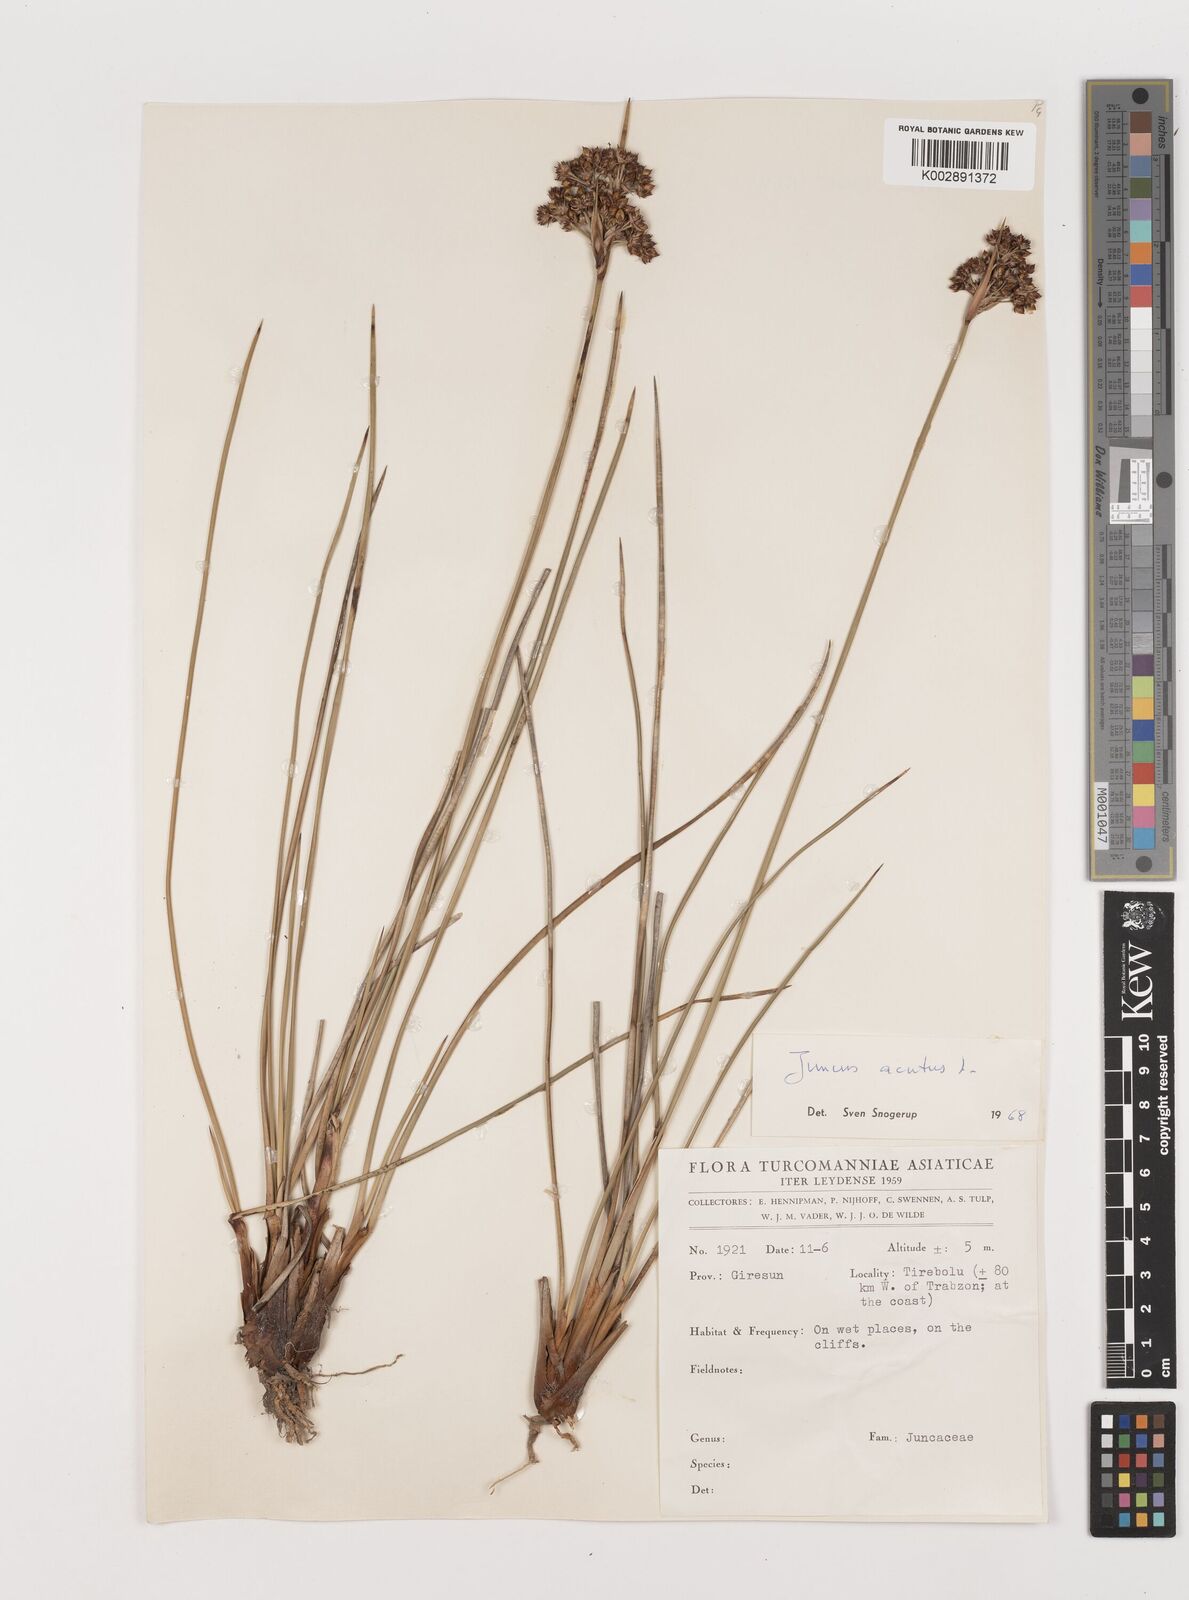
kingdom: Plantae
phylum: Tracheophyta
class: Liliopsida
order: Poales
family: Juncaceae
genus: Juncus
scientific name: Juncus acutus
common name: Sharp rush
